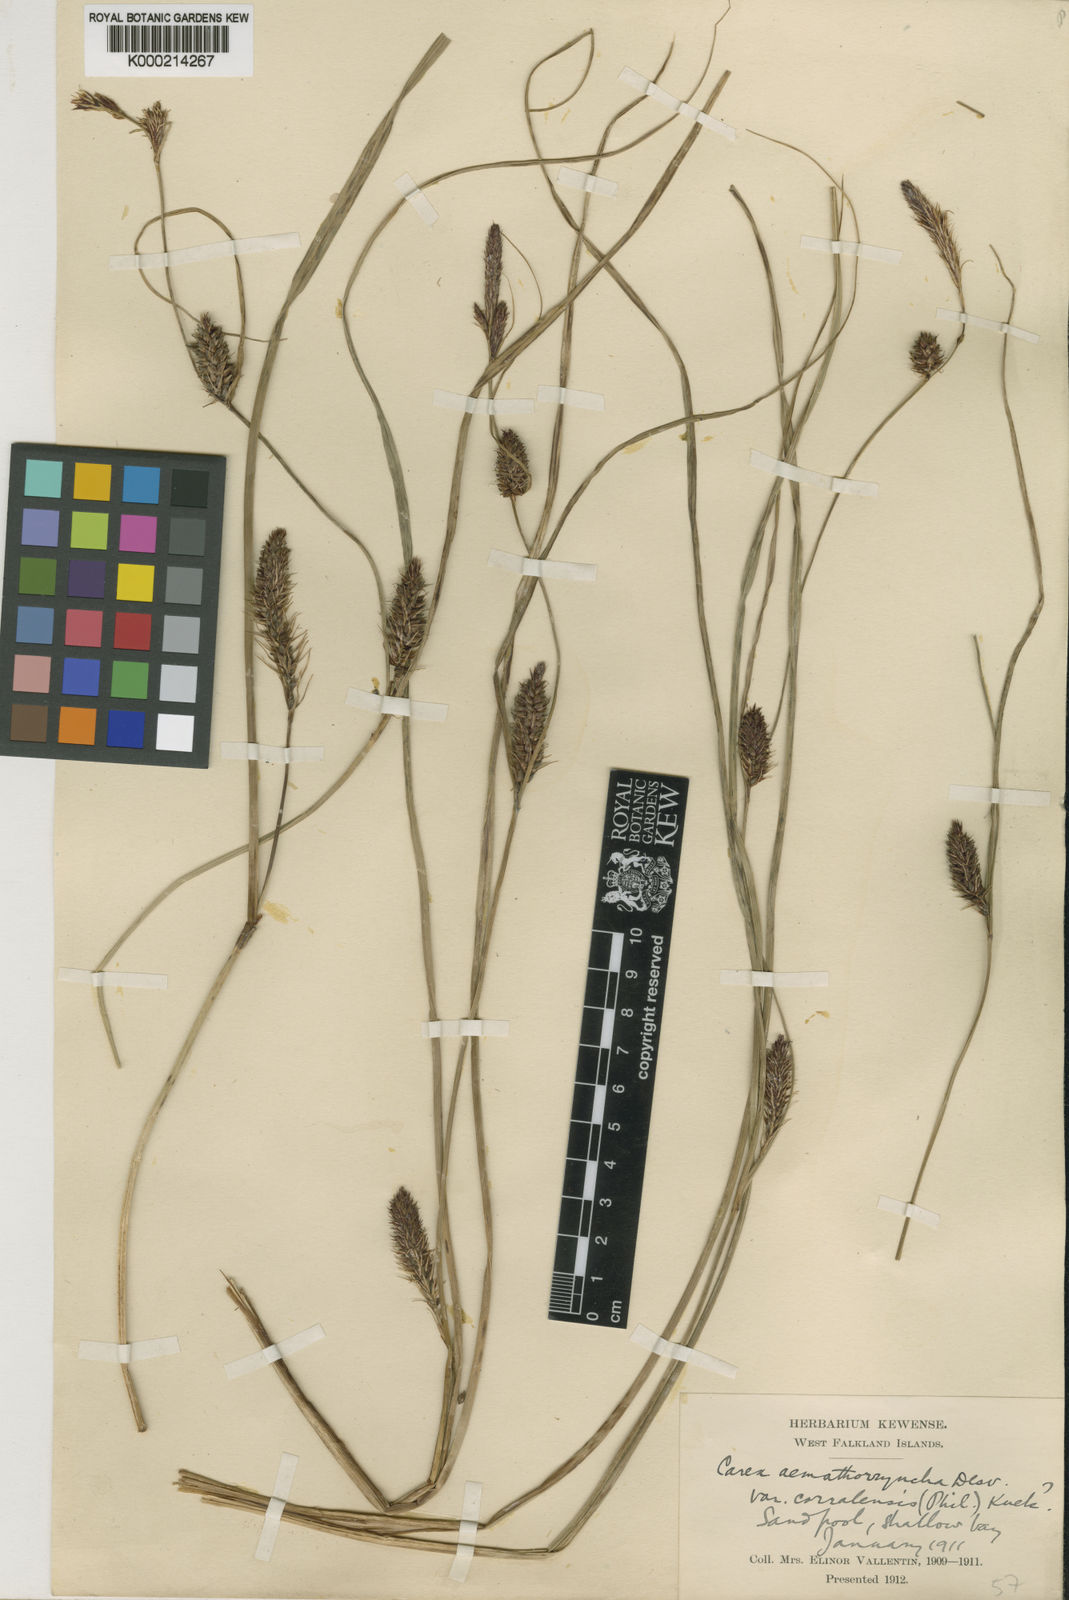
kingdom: Plantae
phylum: Tracheophyta
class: Liliopsida
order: Poales
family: Cyperaceae
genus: Carex
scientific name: Carex aematorhyncha
